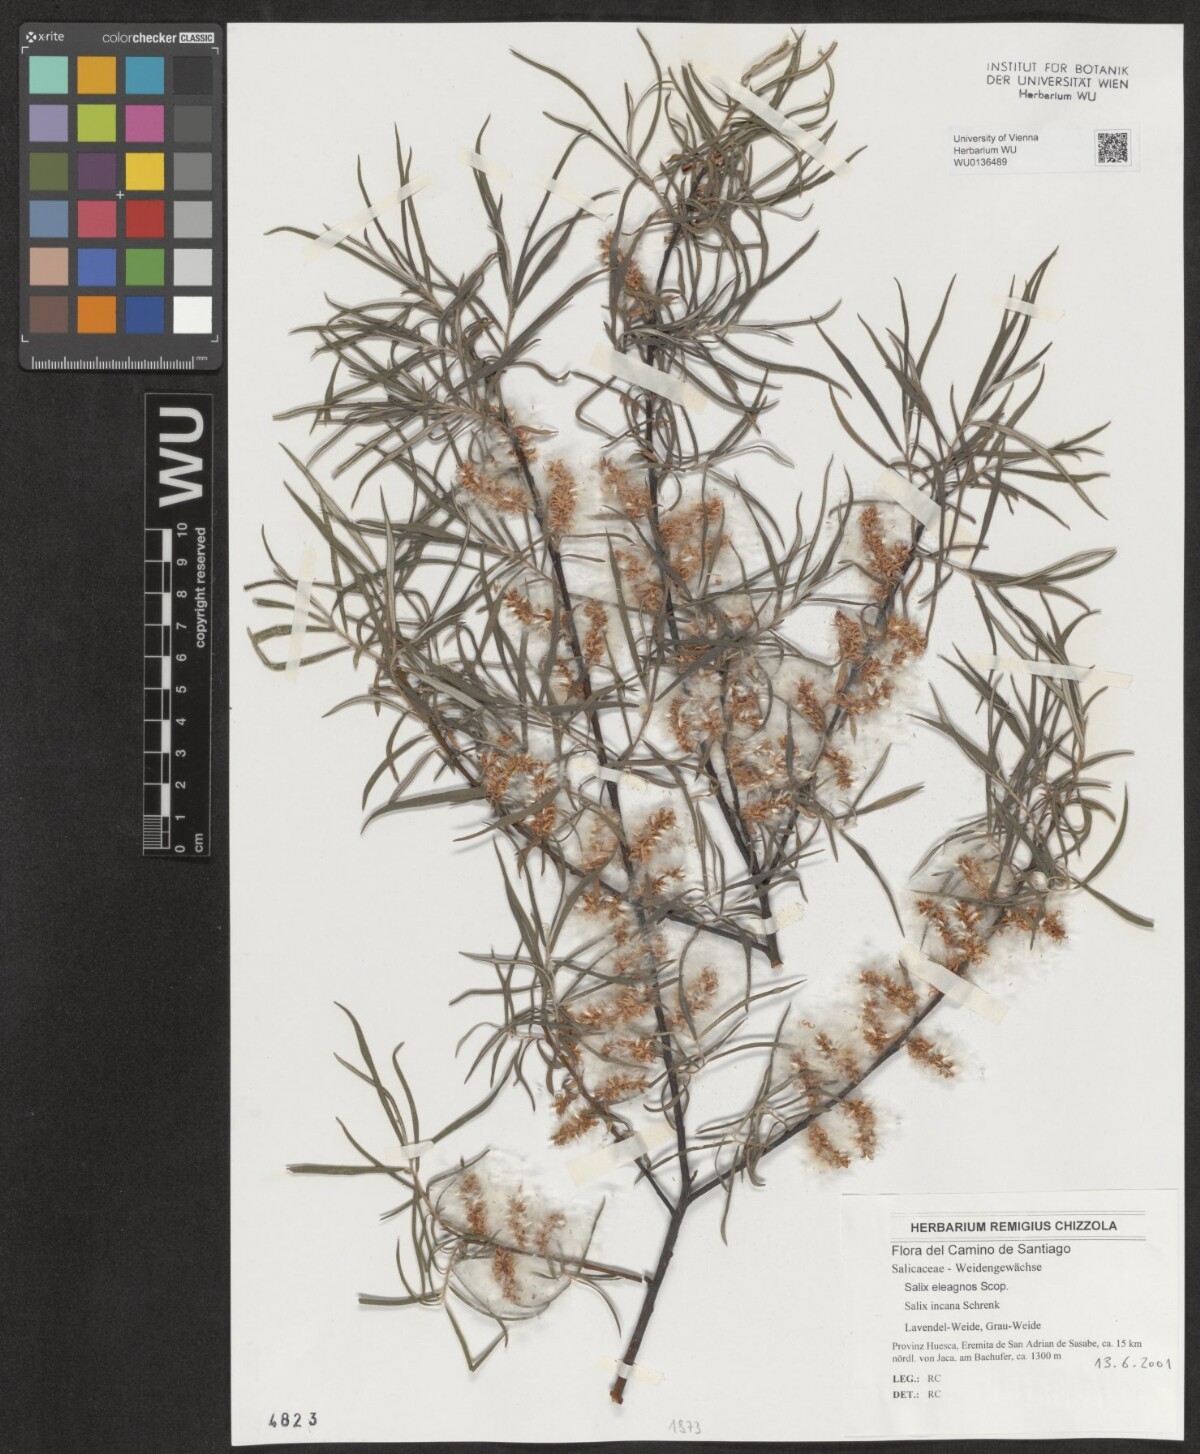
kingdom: Plantae
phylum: Tracheophyta
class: Magnoliopsida
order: Malpighiales
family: Salicaceae
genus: Salix
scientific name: Salix eleagnos
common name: Elaeagnus willow
